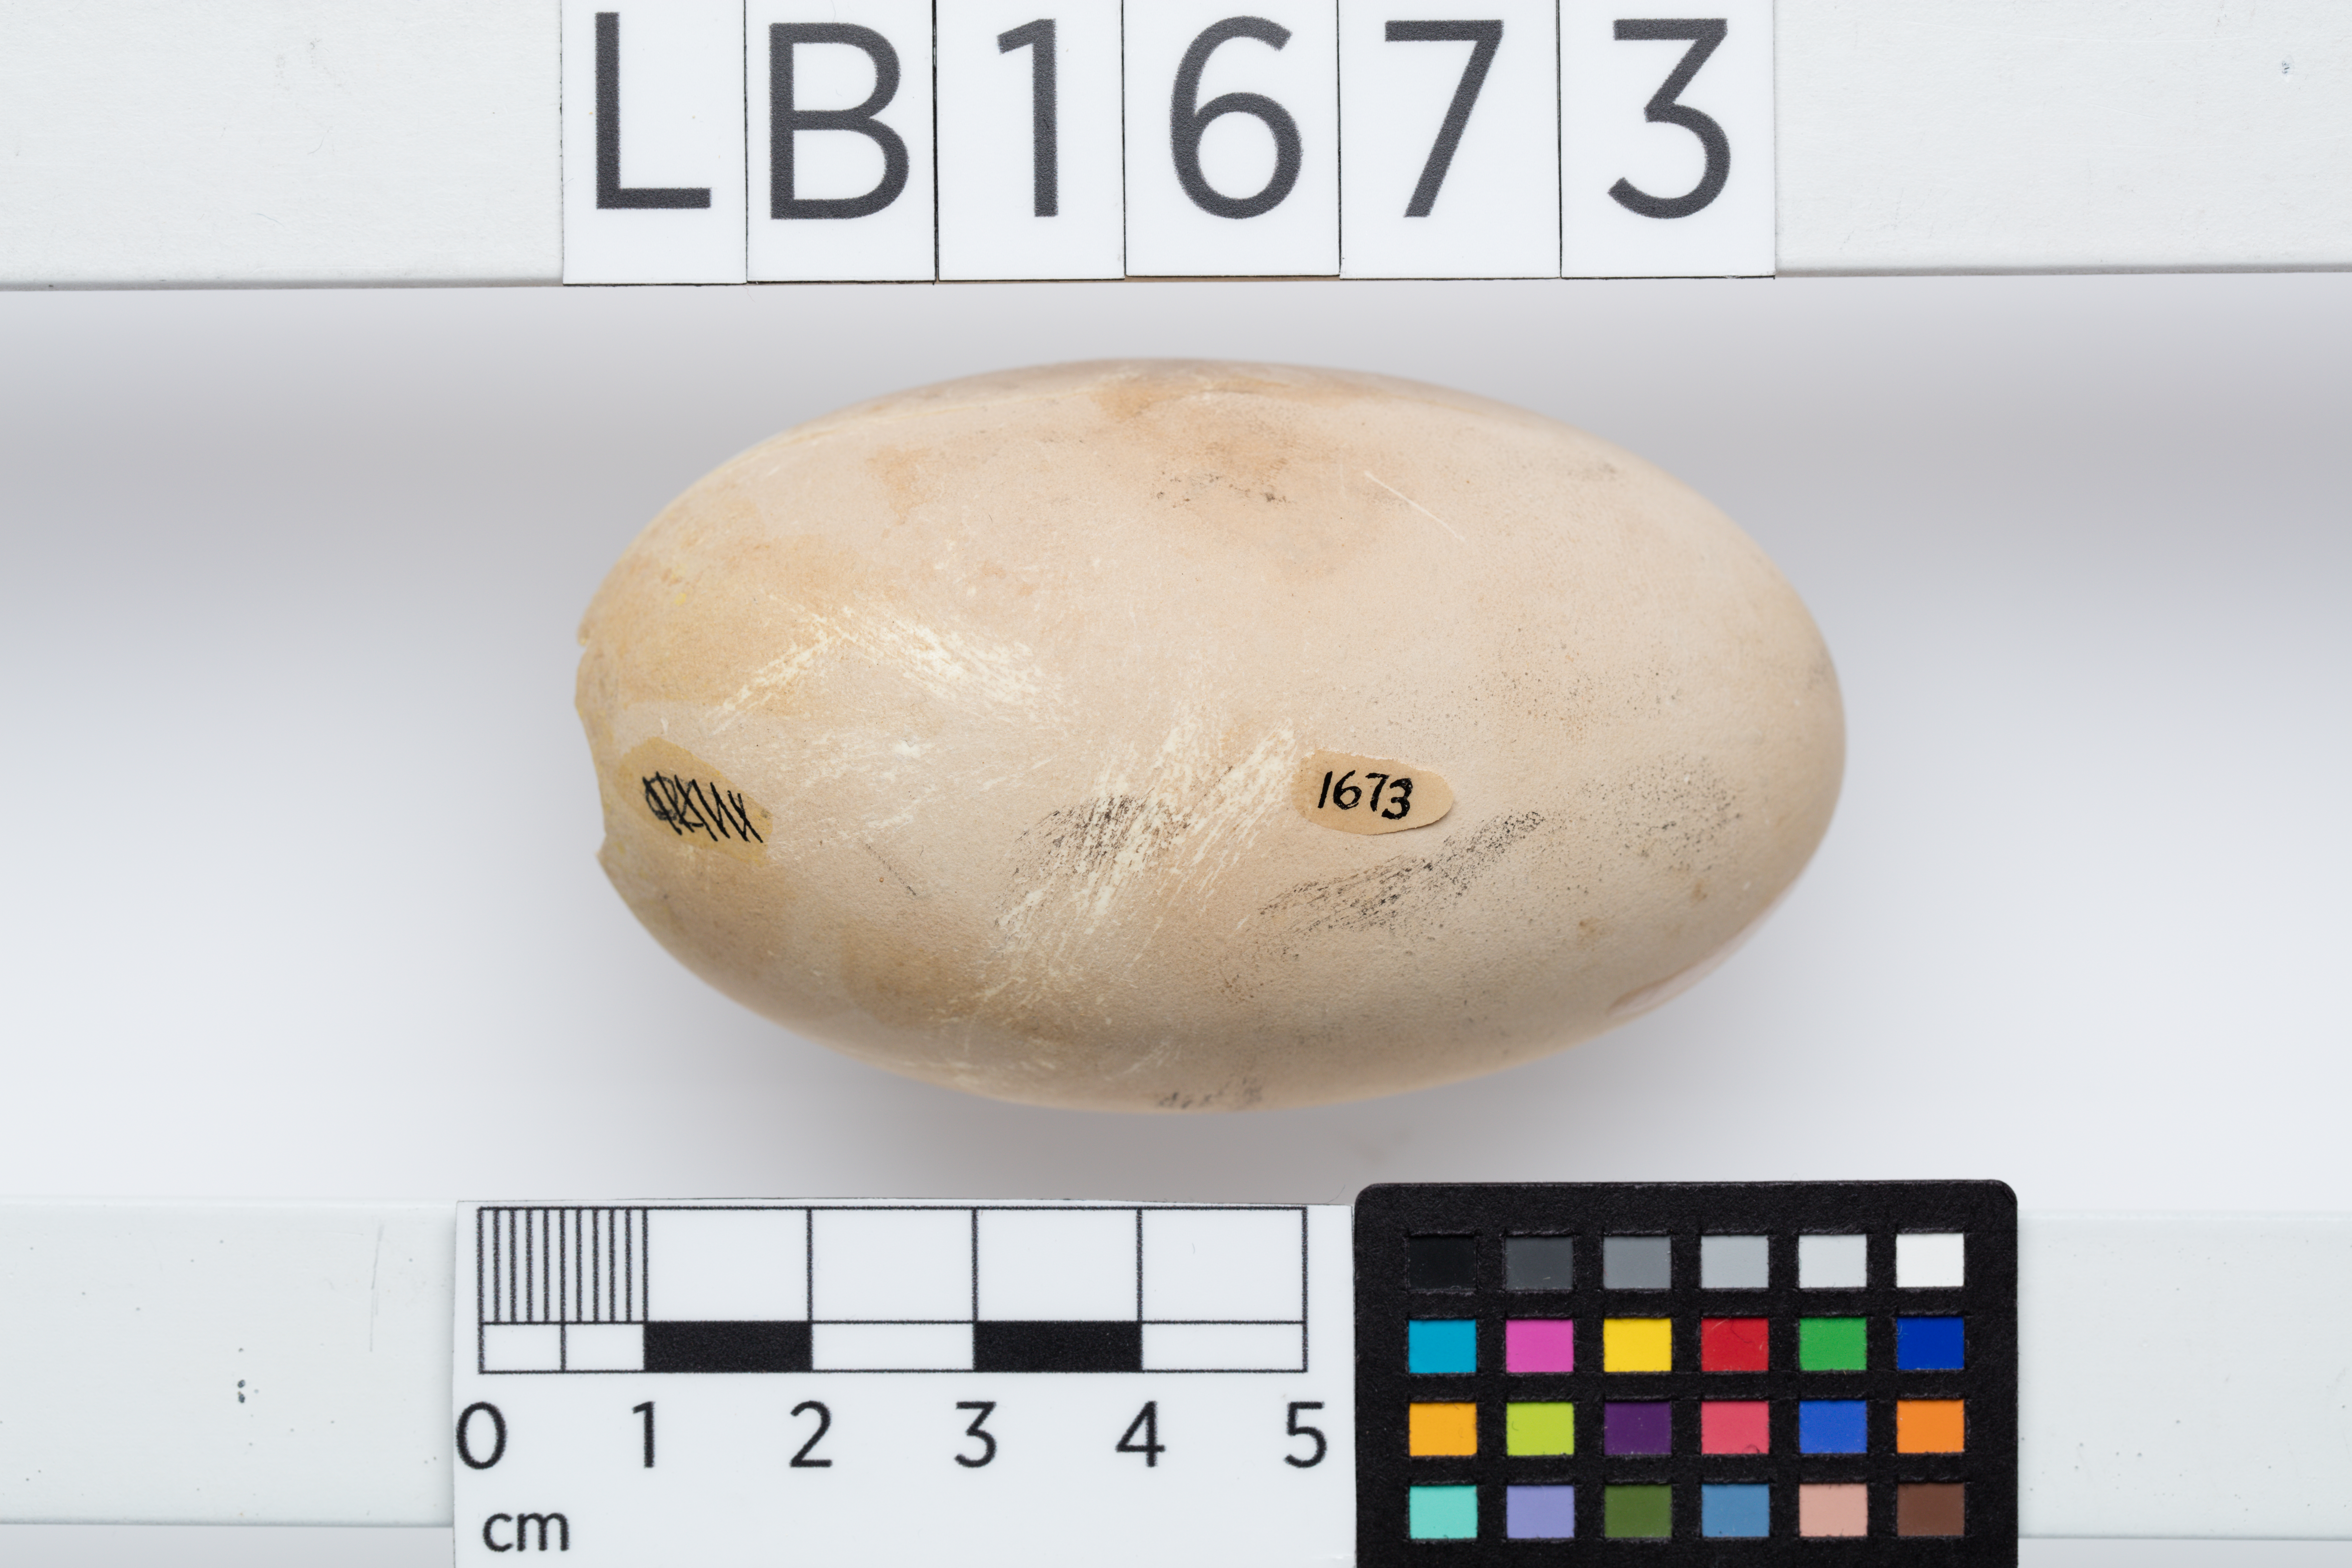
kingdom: Animalia
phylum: Chordata
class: Aves
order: Galliformes
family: Megapodiidae
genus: Megapodius
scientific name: Megapodius freycinet
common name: Dusky megapode
